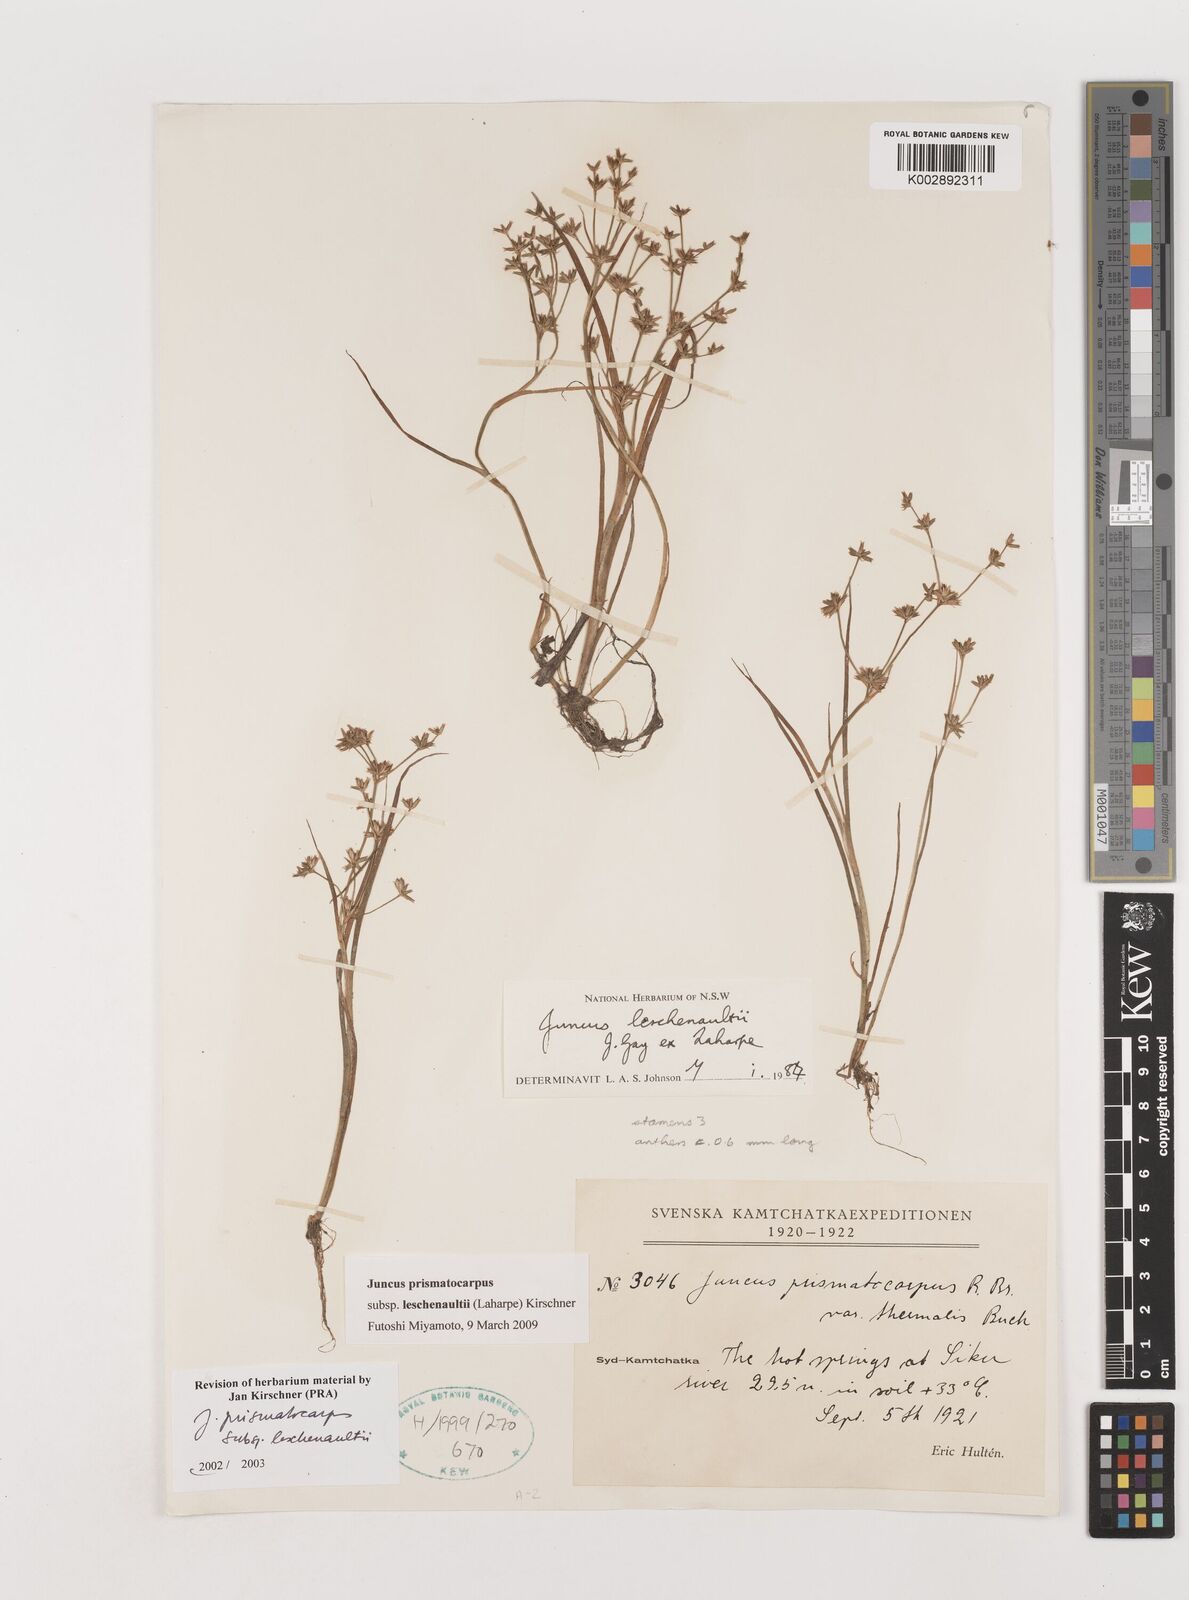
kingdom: Plantae
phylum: Tracheophyta
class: Liliopsida
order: Poales
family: Juncaceae
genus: Juncus
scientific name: Juncus prismatocarpus
